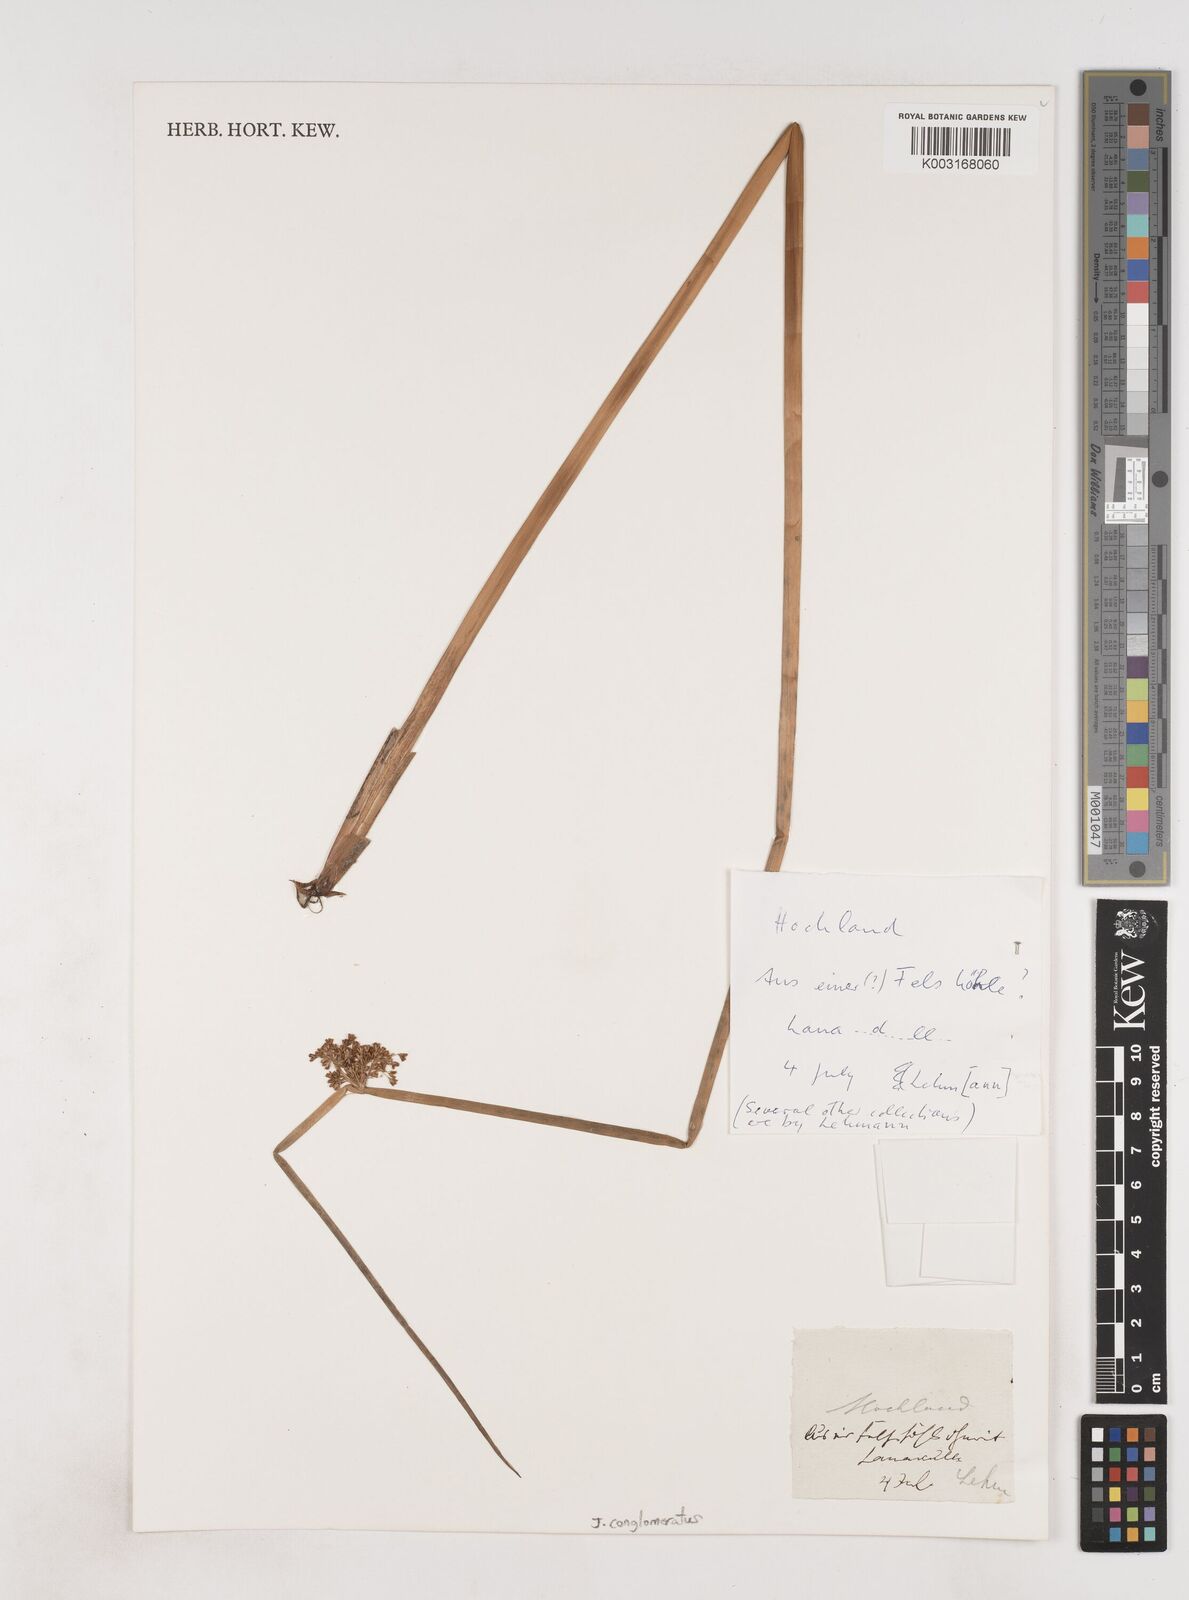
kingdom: Plantae
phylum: Tracheophyta
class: Liliopsida
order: Poales
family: Juncaceae
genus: Juncus
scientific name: Juncus conglomeratus
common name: Compact rush
